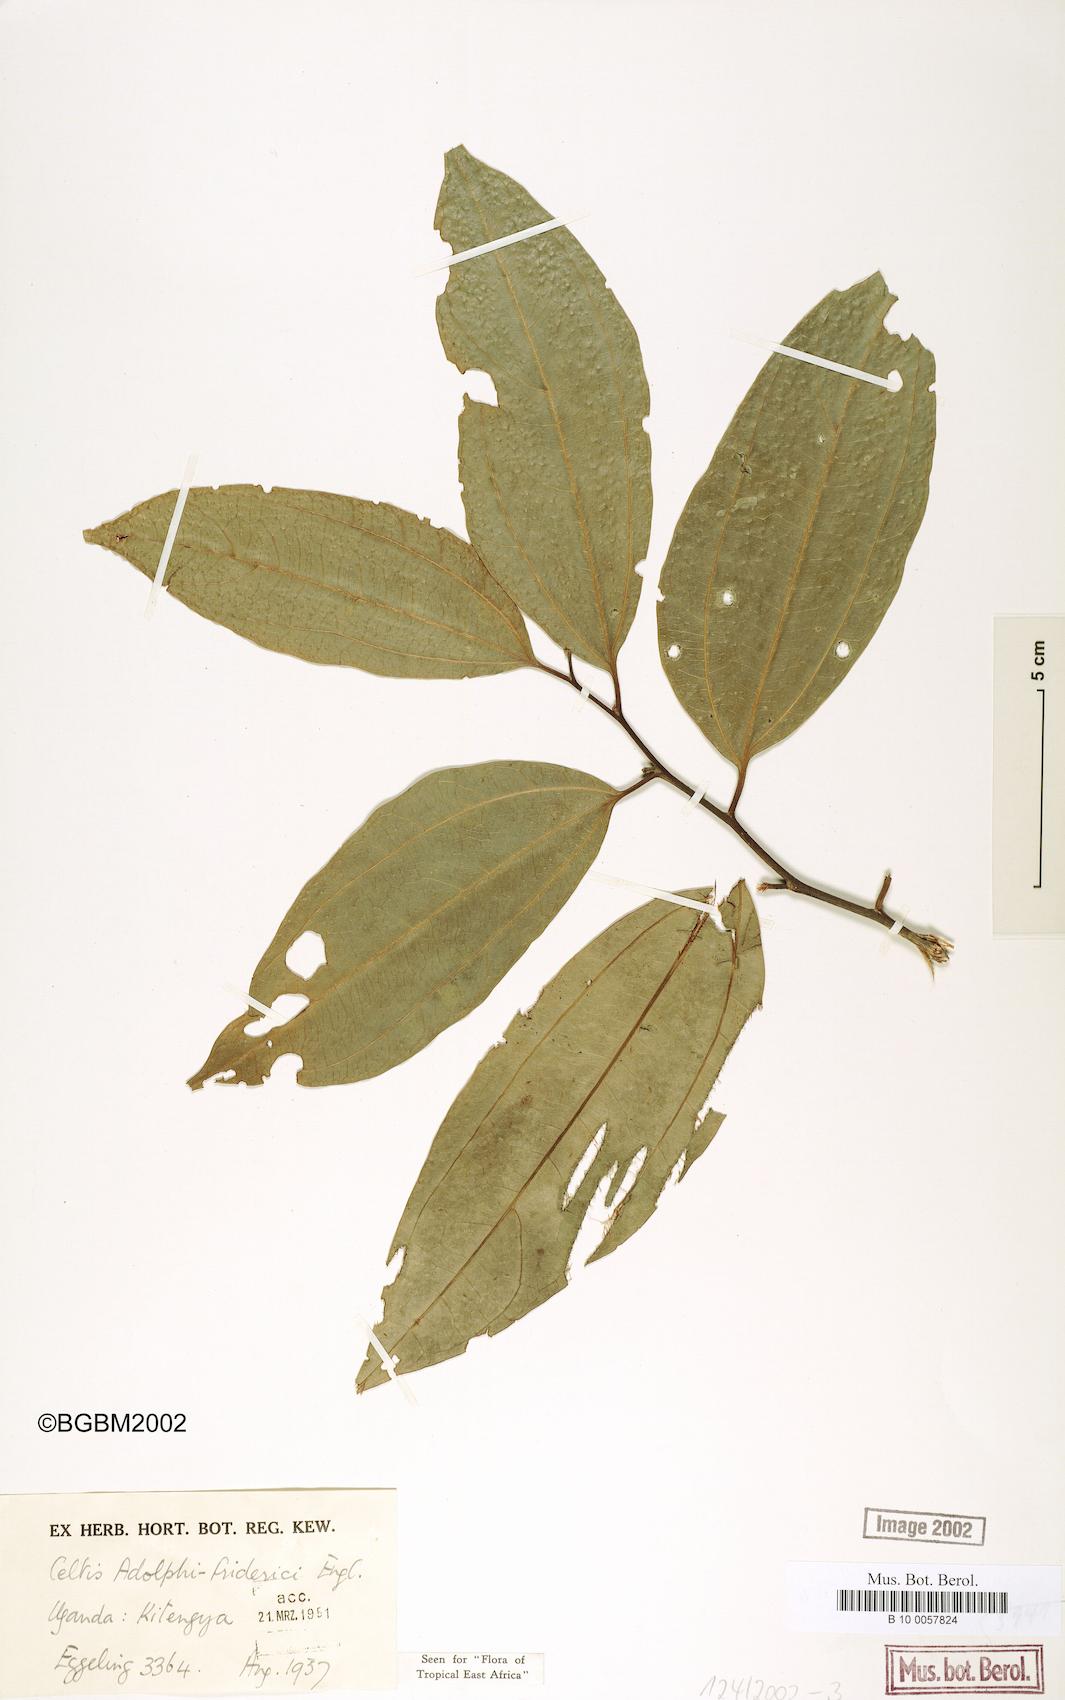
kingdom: Plantae
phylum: Tracheophyta
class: Magnoliopsida
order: Rosales
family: Cannabaceae
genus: Celtis
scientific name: Celtis adolfi-friderici
